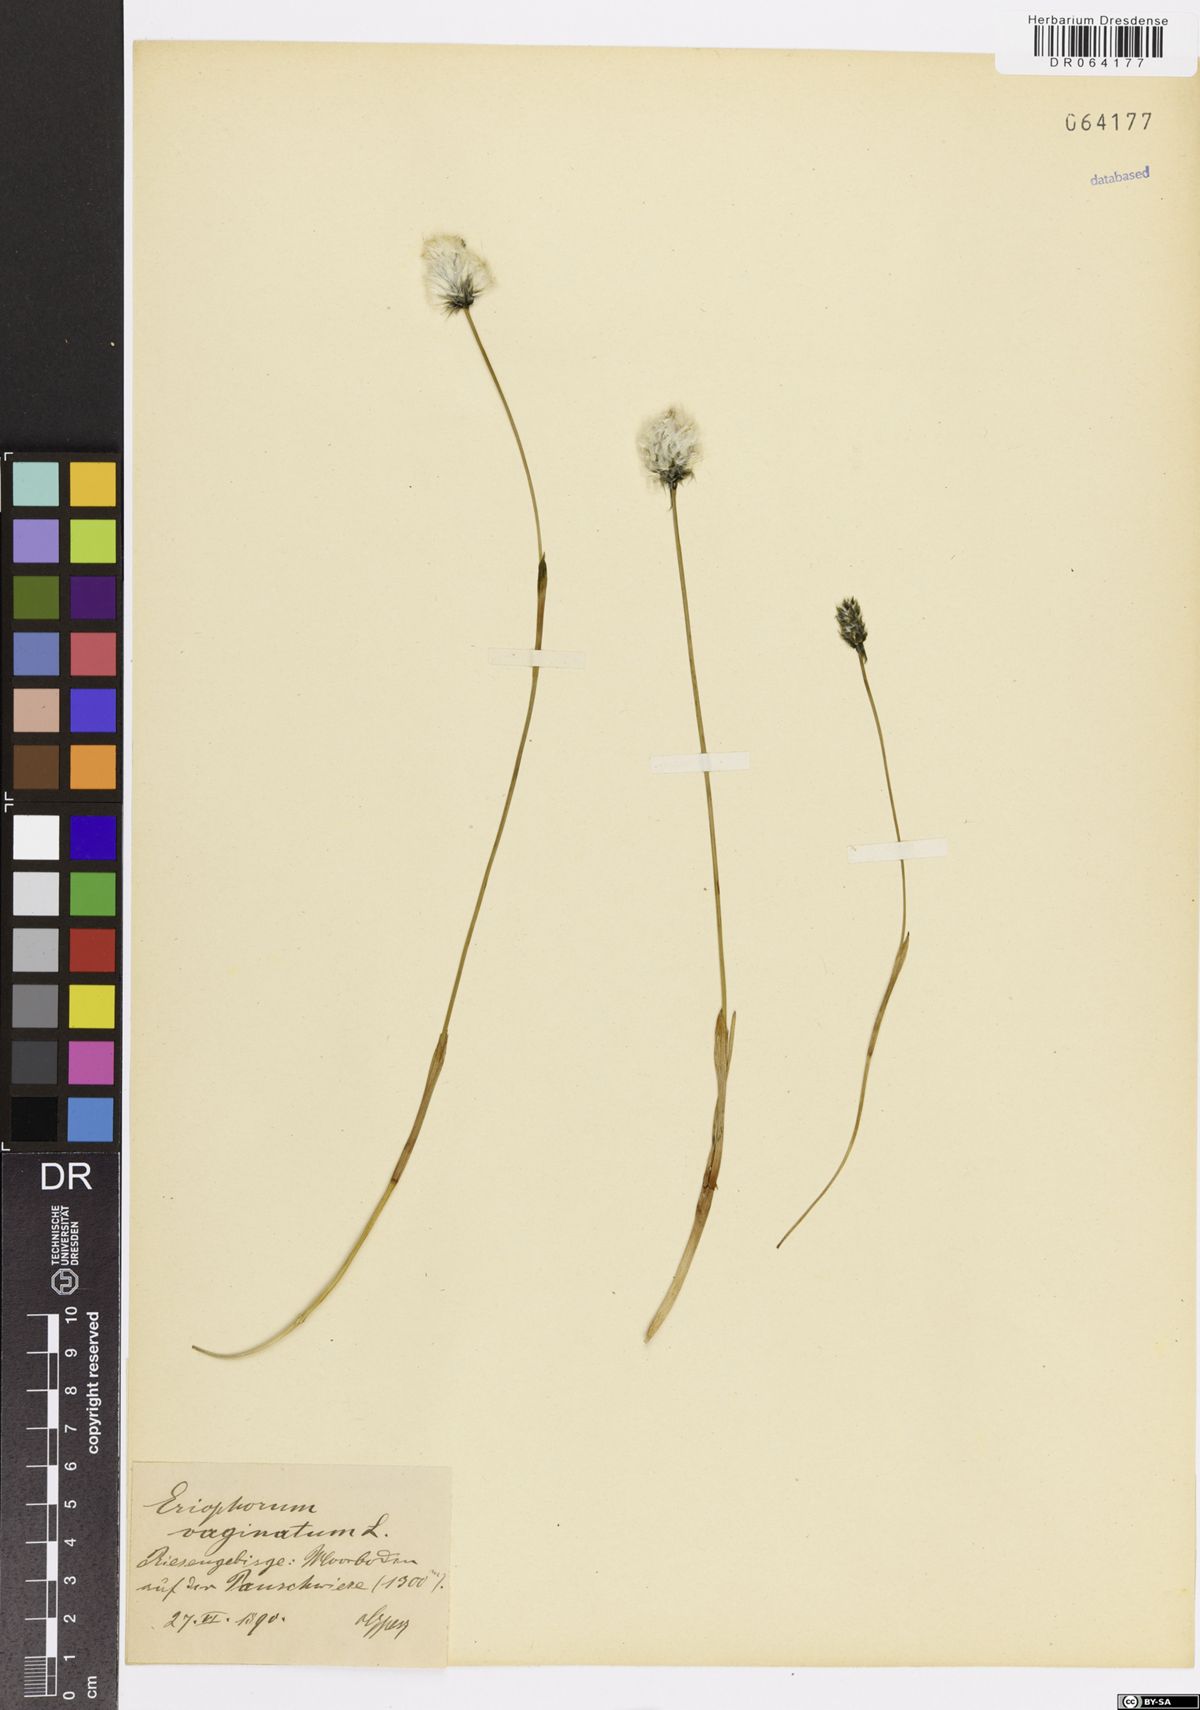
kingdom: Plantae
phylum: Tracheophyta
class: Liliopsida
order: Poales
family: Cyperaceae
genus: Eriophorum
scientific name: Eriophorum vaginatum
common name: Hare's-tail cottongrass
